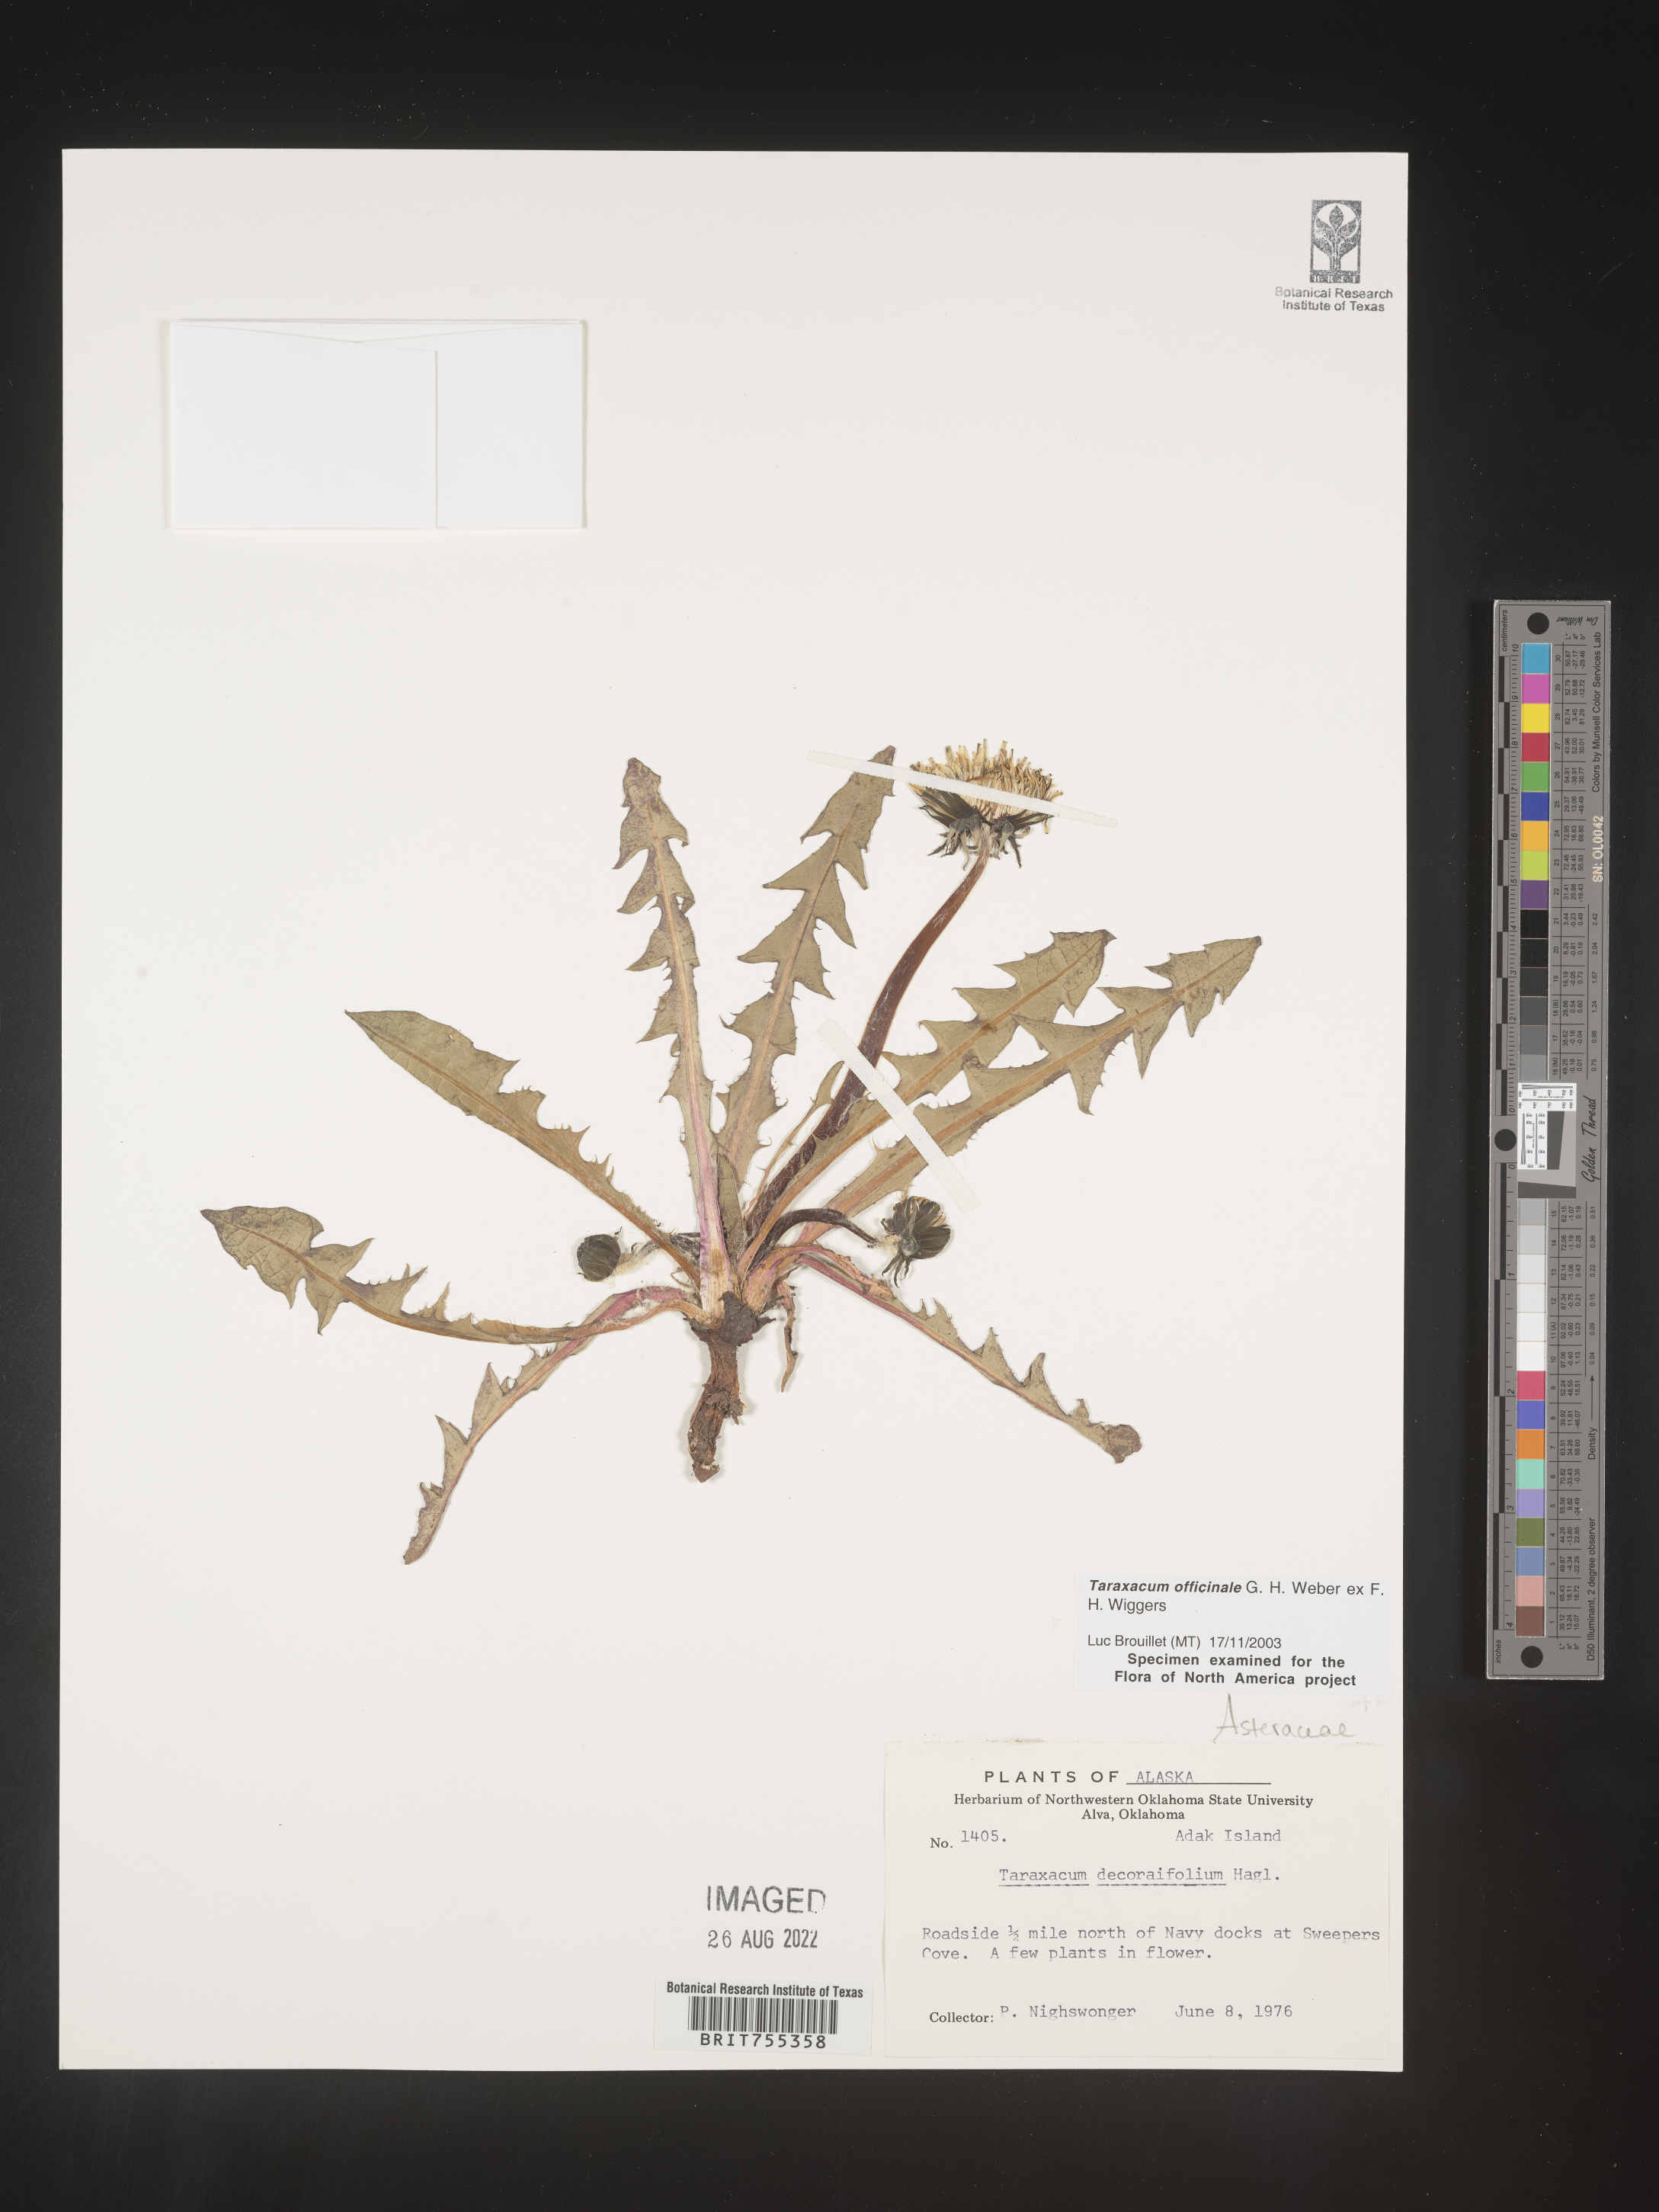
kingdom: Plantae
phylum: Tracheophyta
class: Magnoliopsida
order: Asterales
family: Asteraceae
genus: Taraxacum
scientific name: Taraxacum officinale
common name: Common dandelion
